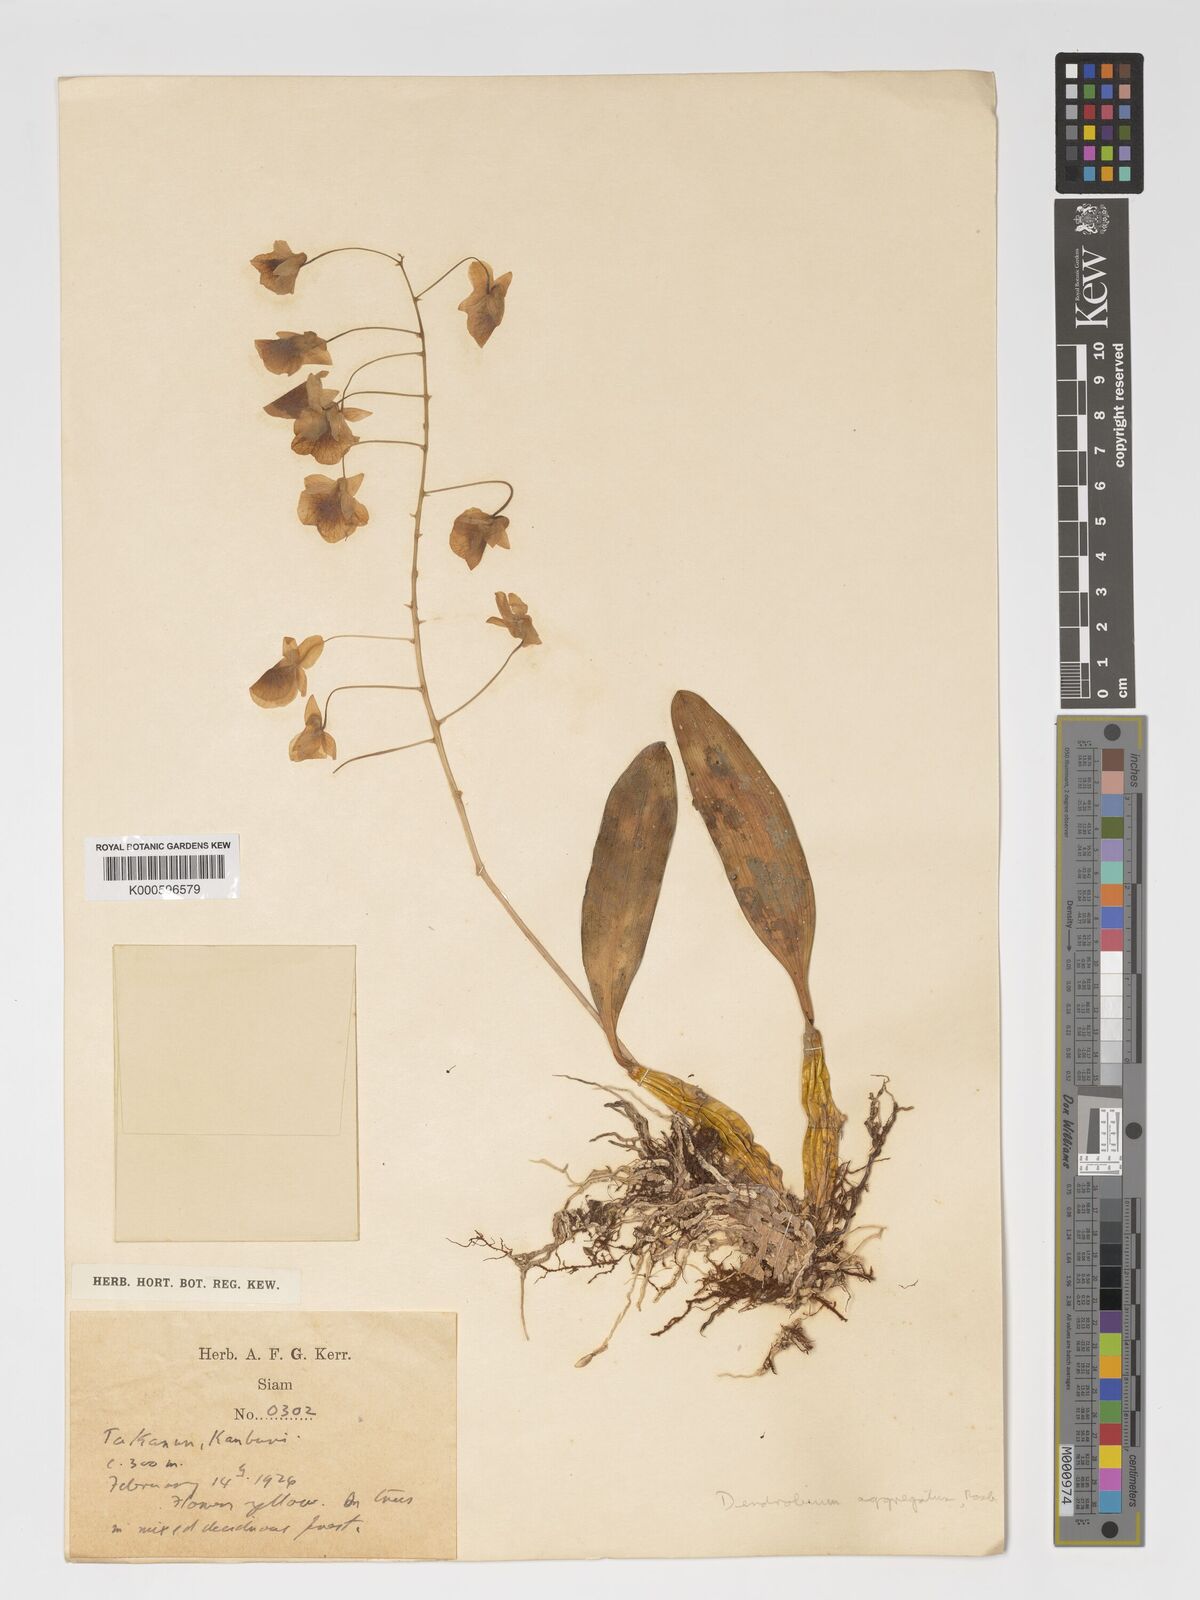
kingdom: Plantae
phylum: Tracheophyta
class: Liliopsida
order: Asparagales
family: Orchidaceae
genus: Dendrobium
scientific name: Dendrobium lindleyi
